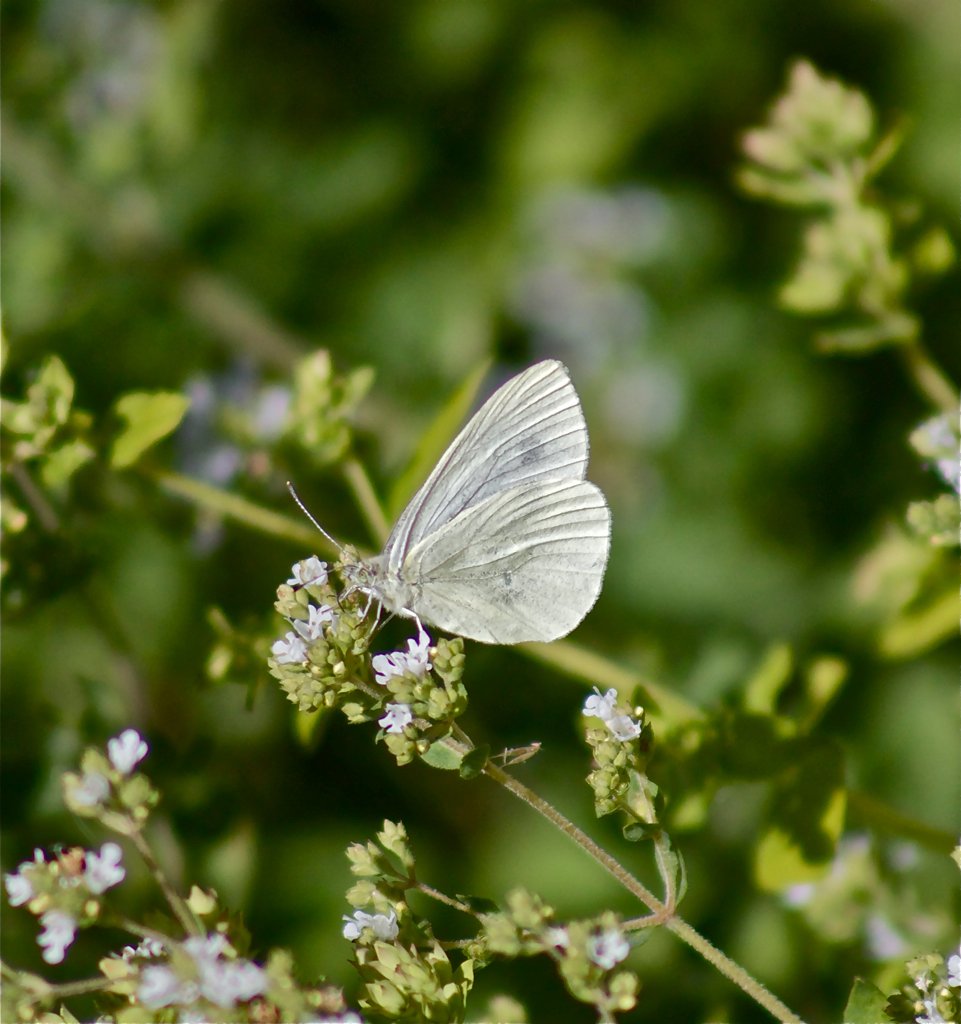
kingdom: Animalia
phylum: Arthropoda
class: Insecta
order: Lepidoptera
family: Pieridae
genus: Pieris
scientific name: Pieris marginalis
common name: Margined White
